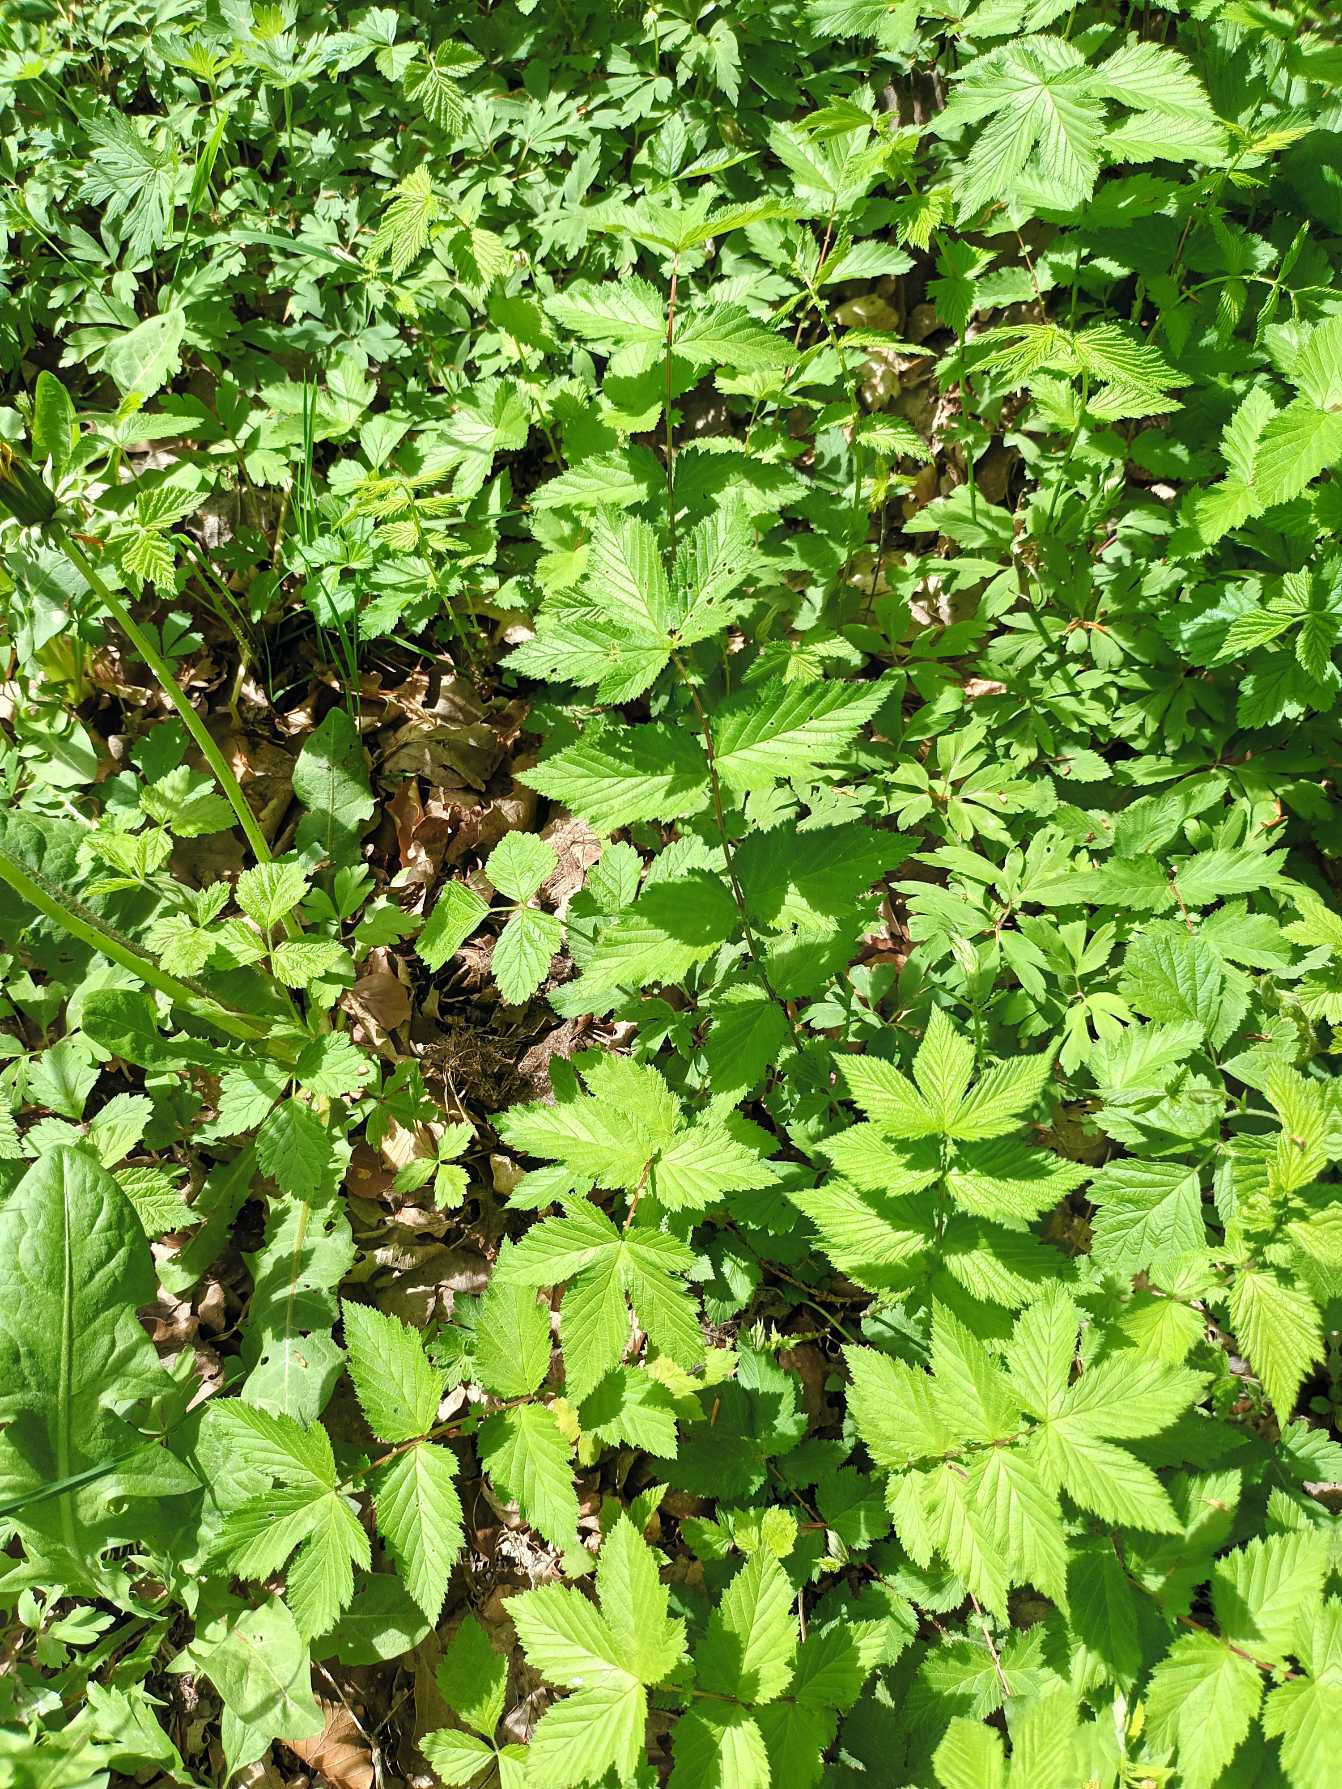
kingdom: Plantae
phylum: Tracheophyta
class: Magnoliopsida
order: Rosales
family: Rosaceae
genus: Filipendula
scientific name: Filipendula ulmaria
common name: Almindelig mjødurt
